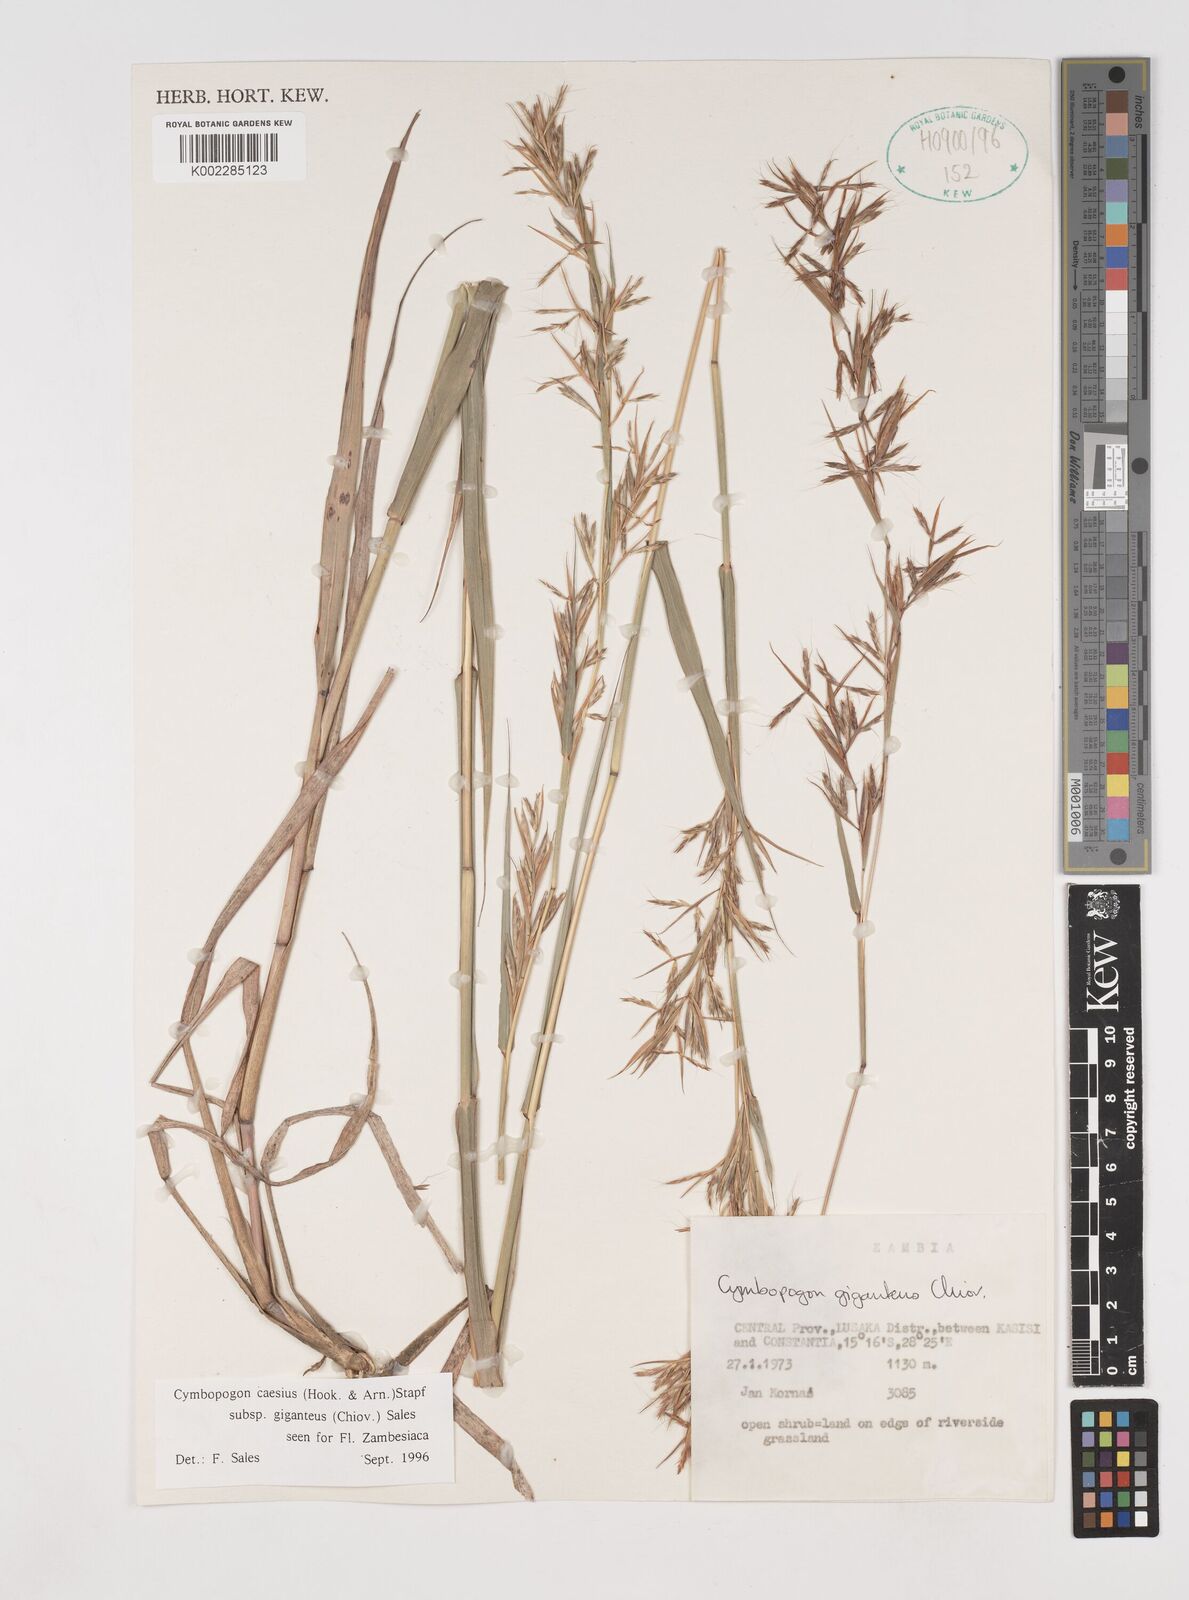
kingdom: Plantae
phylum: Tracheophyta
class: Liliopsida
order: Poales
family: Poaceae
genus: Cymbopogon
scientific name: Cymbopogon giganteus
